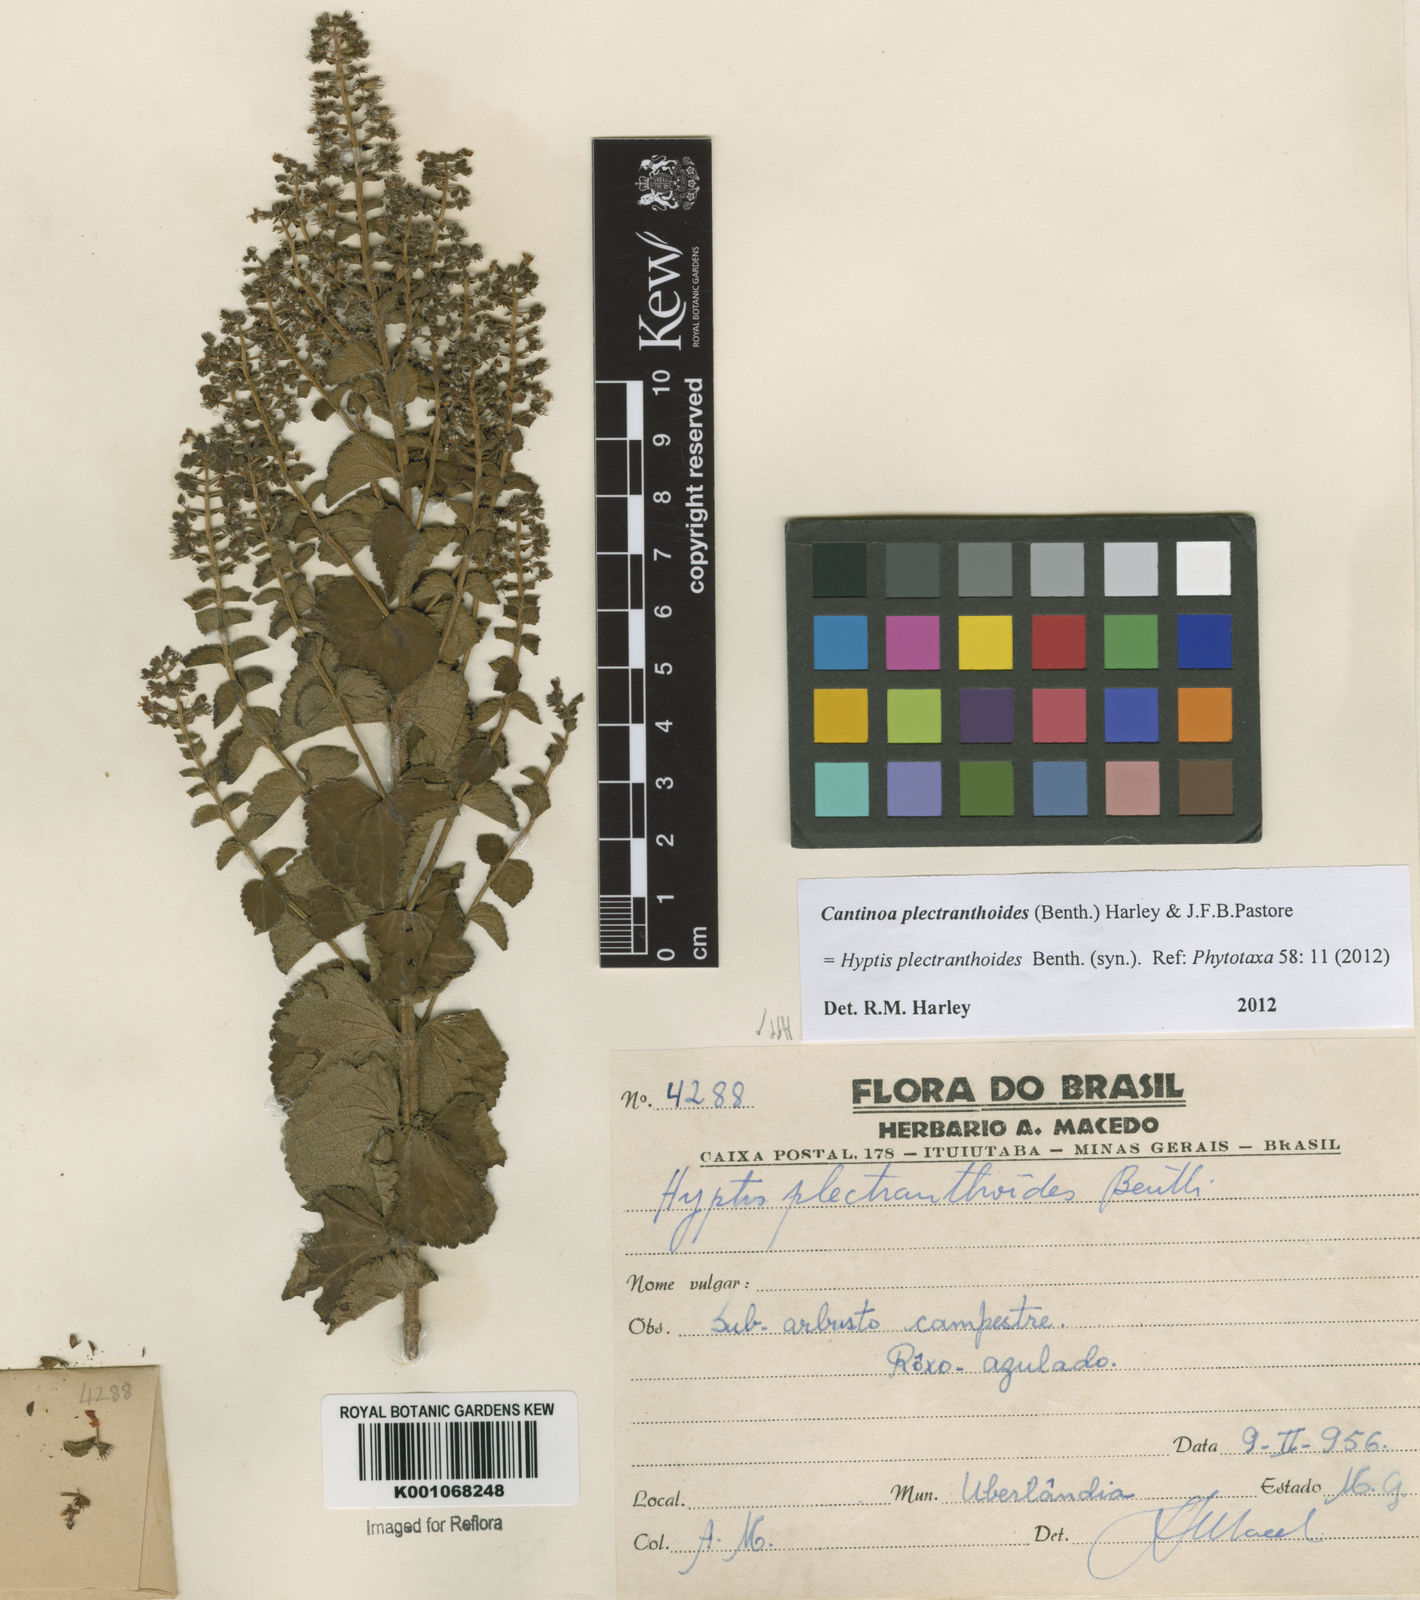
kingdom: Plantae
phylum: Tracheophyta
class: Magnoliopsida
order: Lamiales
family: Lamiaceae
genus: Cantinoa
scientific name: Cantinoa plectranthoides
